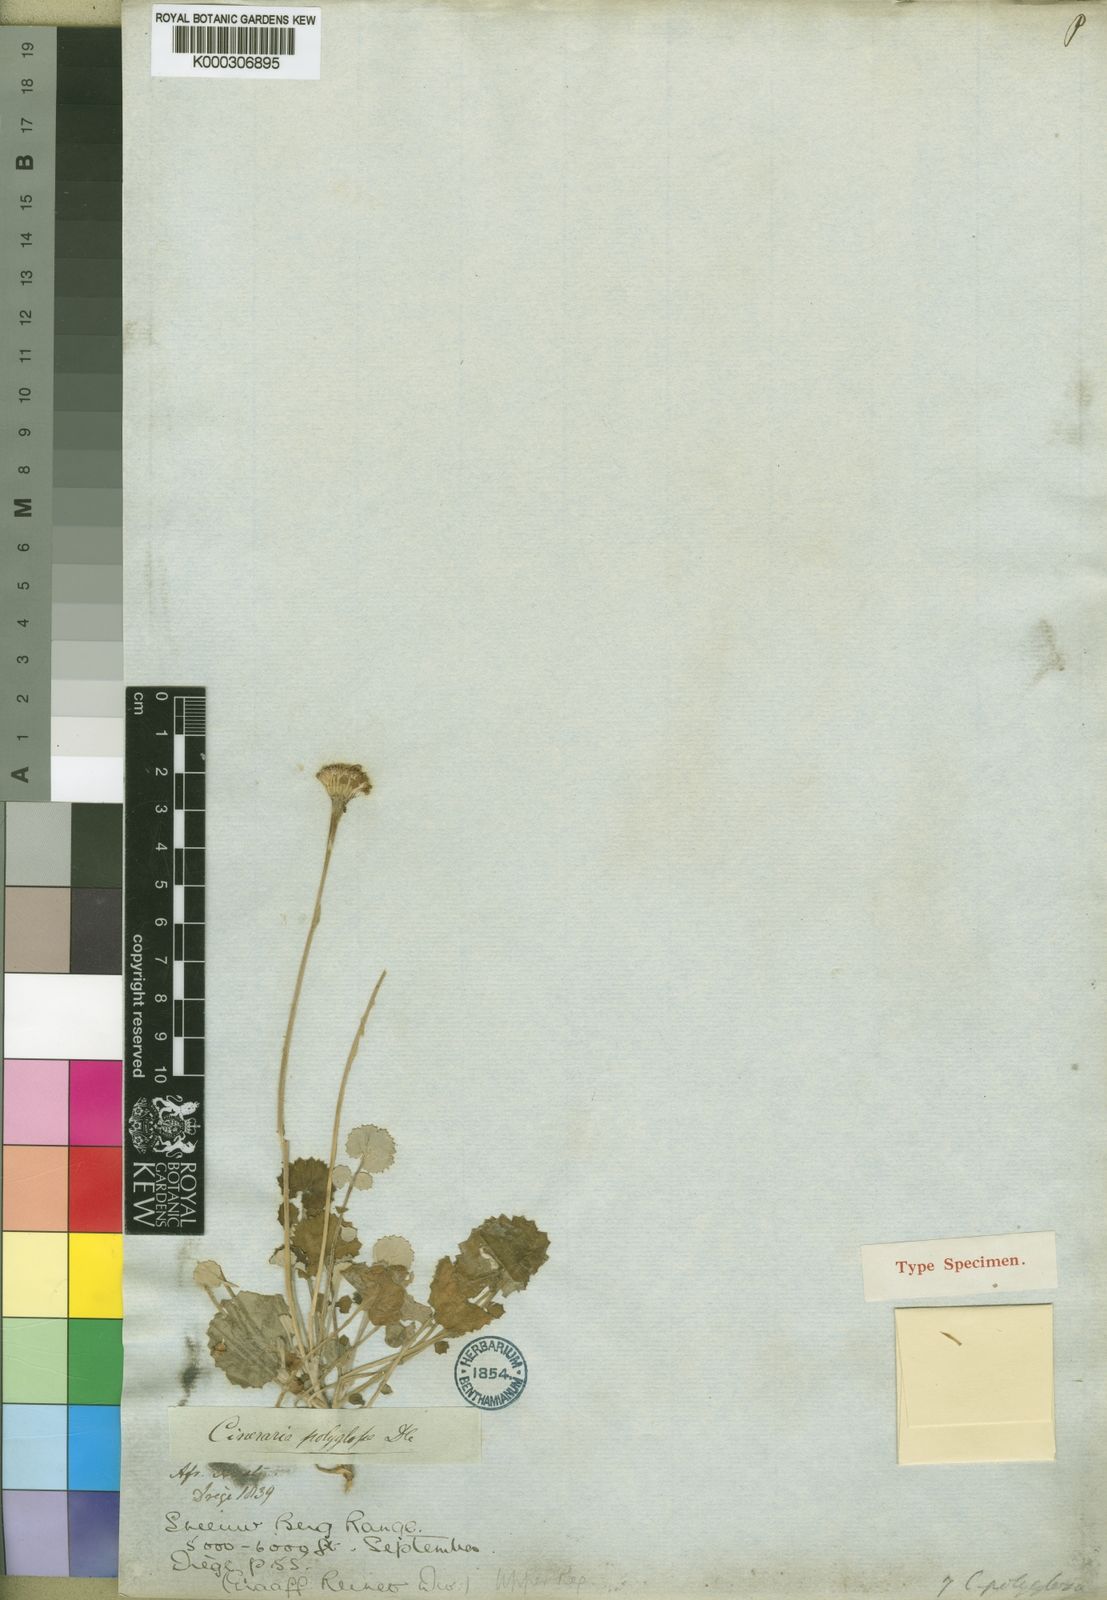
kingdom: Plantae
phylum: Tracheophyta
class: Magnoliopsida
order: Asterales
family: Asteraceae
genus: Cineraria
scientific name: Cineraria mollis
